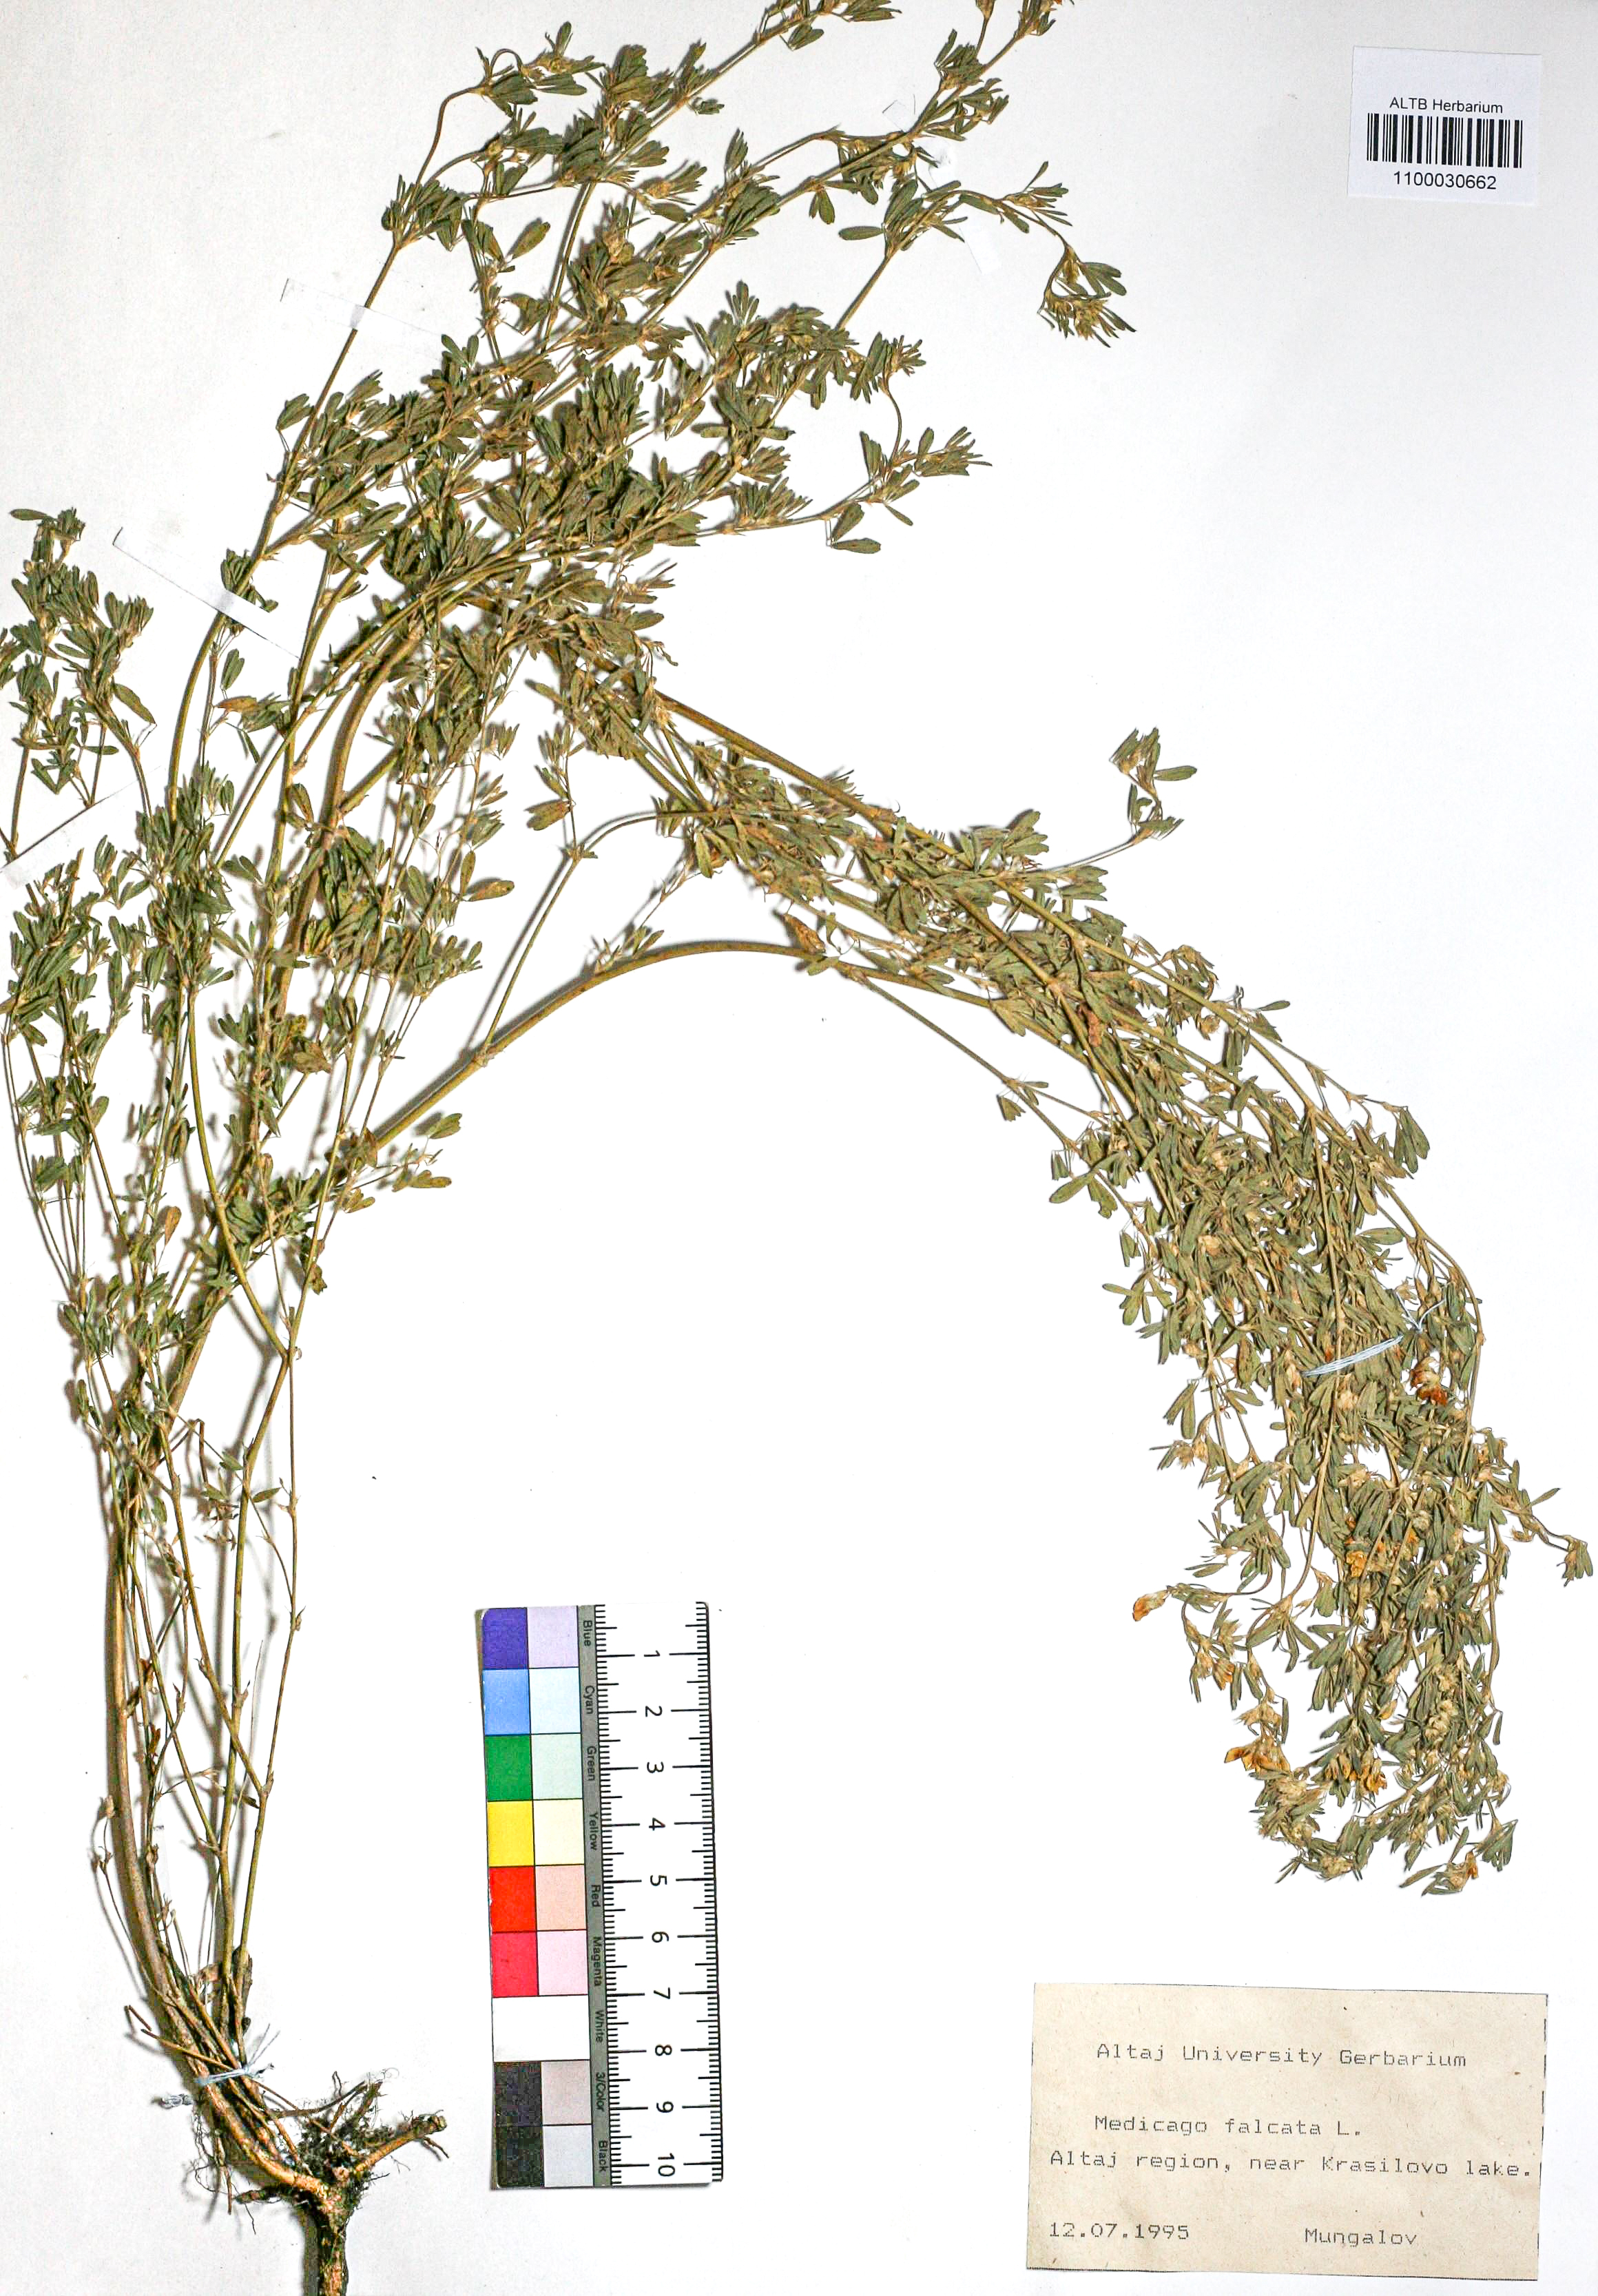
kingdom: Plantae
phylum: Tracheophyta
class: Magnoliopsida
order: Fabales
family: Fabaceae
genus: Medicago
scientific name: Medicago falcata
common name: Sickle medick
